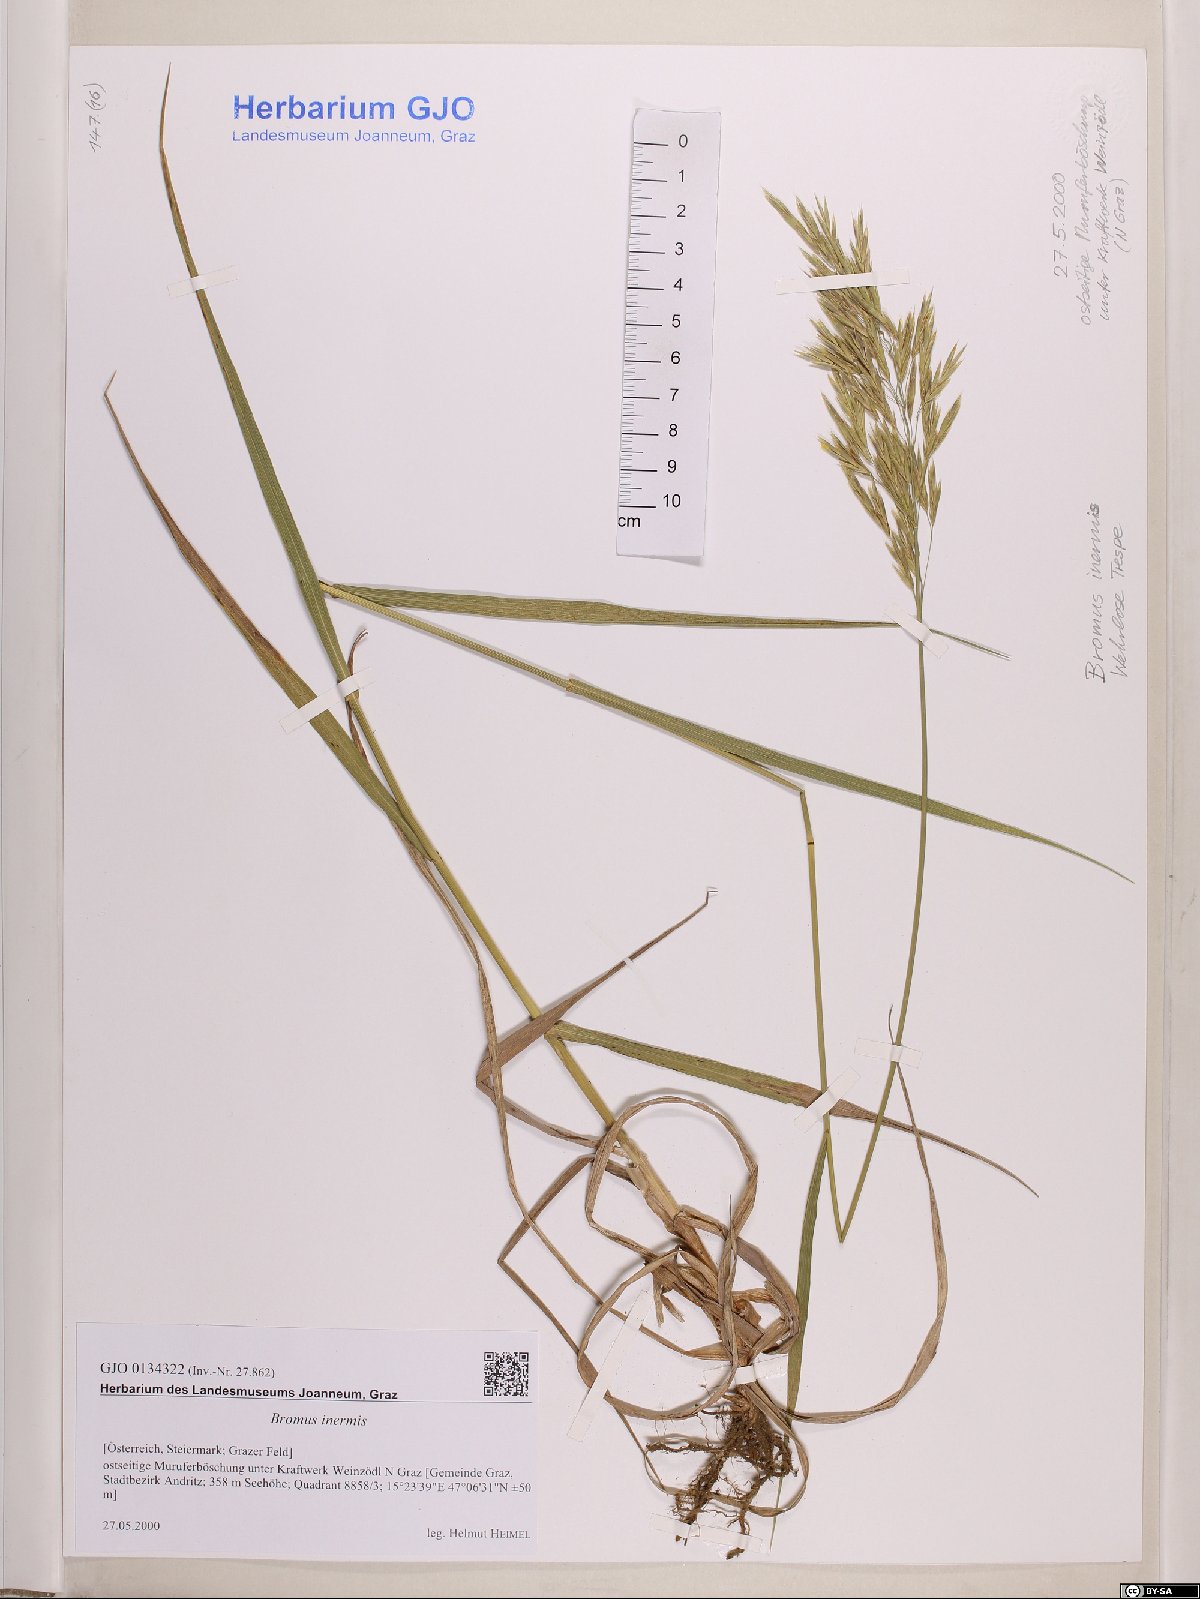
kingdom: Plantae
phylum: Tracheophyta
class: Liliopsida
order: Poales
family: Poaceae
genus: Bromus
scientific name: Bromus inermis
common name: Smooth brome
